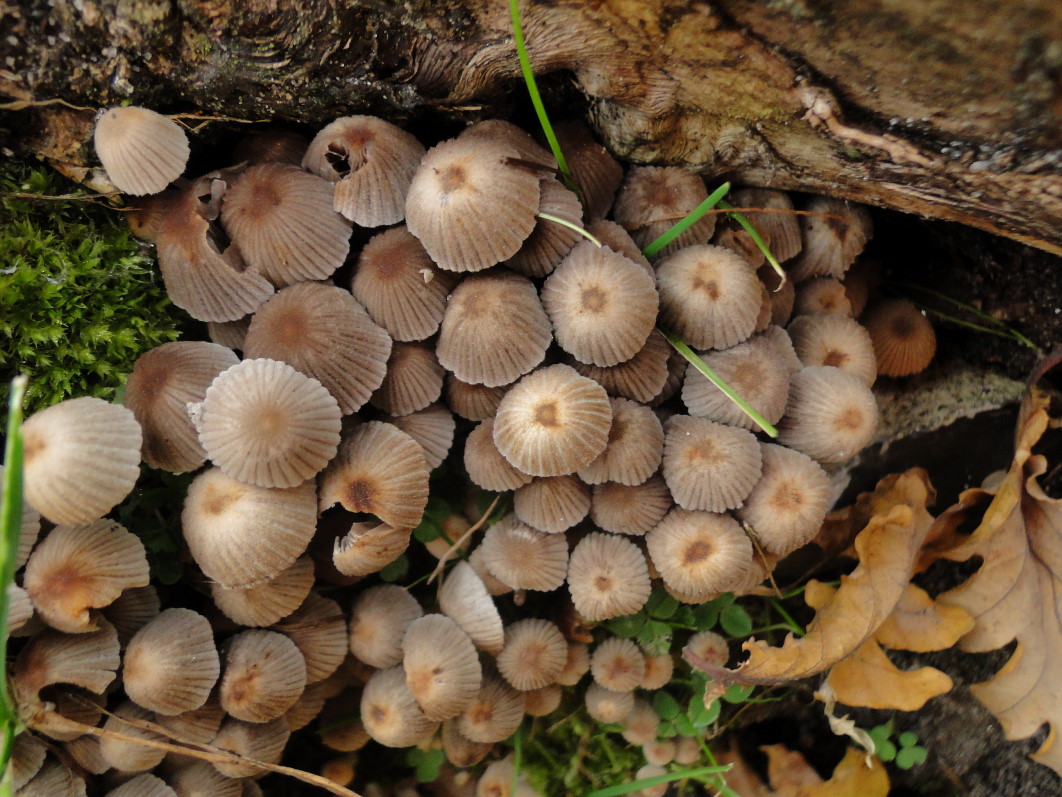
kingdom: Fungi
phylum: Basidiomycota
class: Agaricomycetes
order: Agaricales
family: Psathyrellaceae
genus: Coprinellus
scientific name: Coprinellus disseminatus
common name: bredsået blækhat
